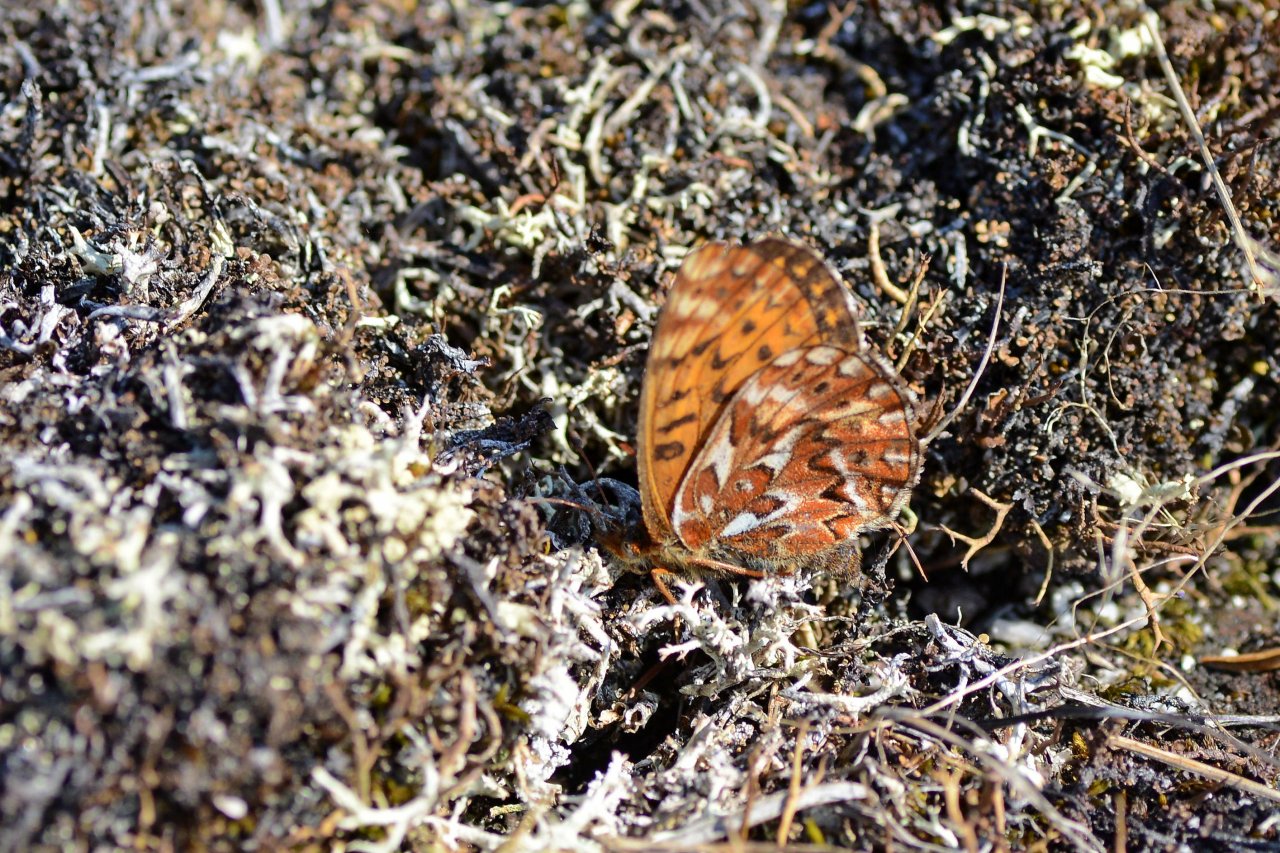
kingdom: Animalia
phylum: Arthropoda
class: Insecta
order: Lepidoptera
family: Nymphalidae
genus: Boloria
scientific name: Boloria freija
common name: Freija Fritillary
